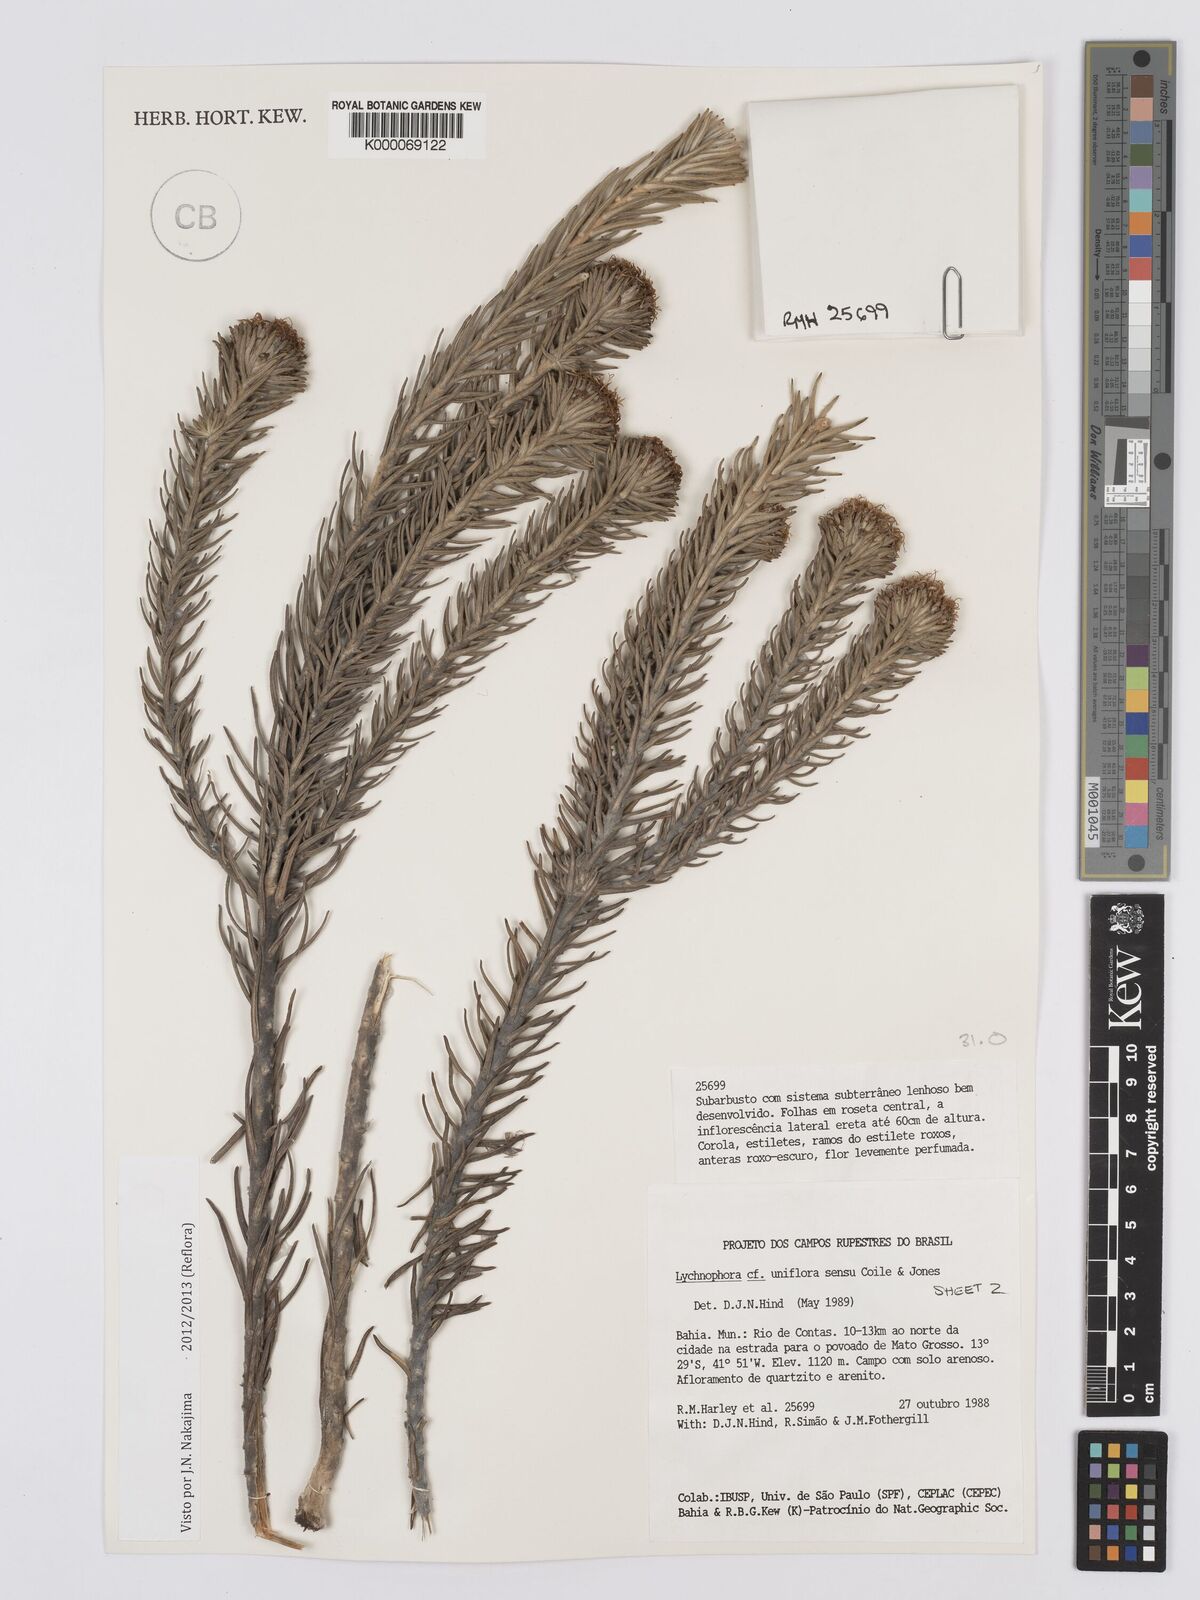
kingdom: Plantae
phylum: Tracheophyta
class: Magnoliopsida
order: Asterales
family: Asteraceae
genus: Lychnophora
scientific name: Lychnophora uniflora
